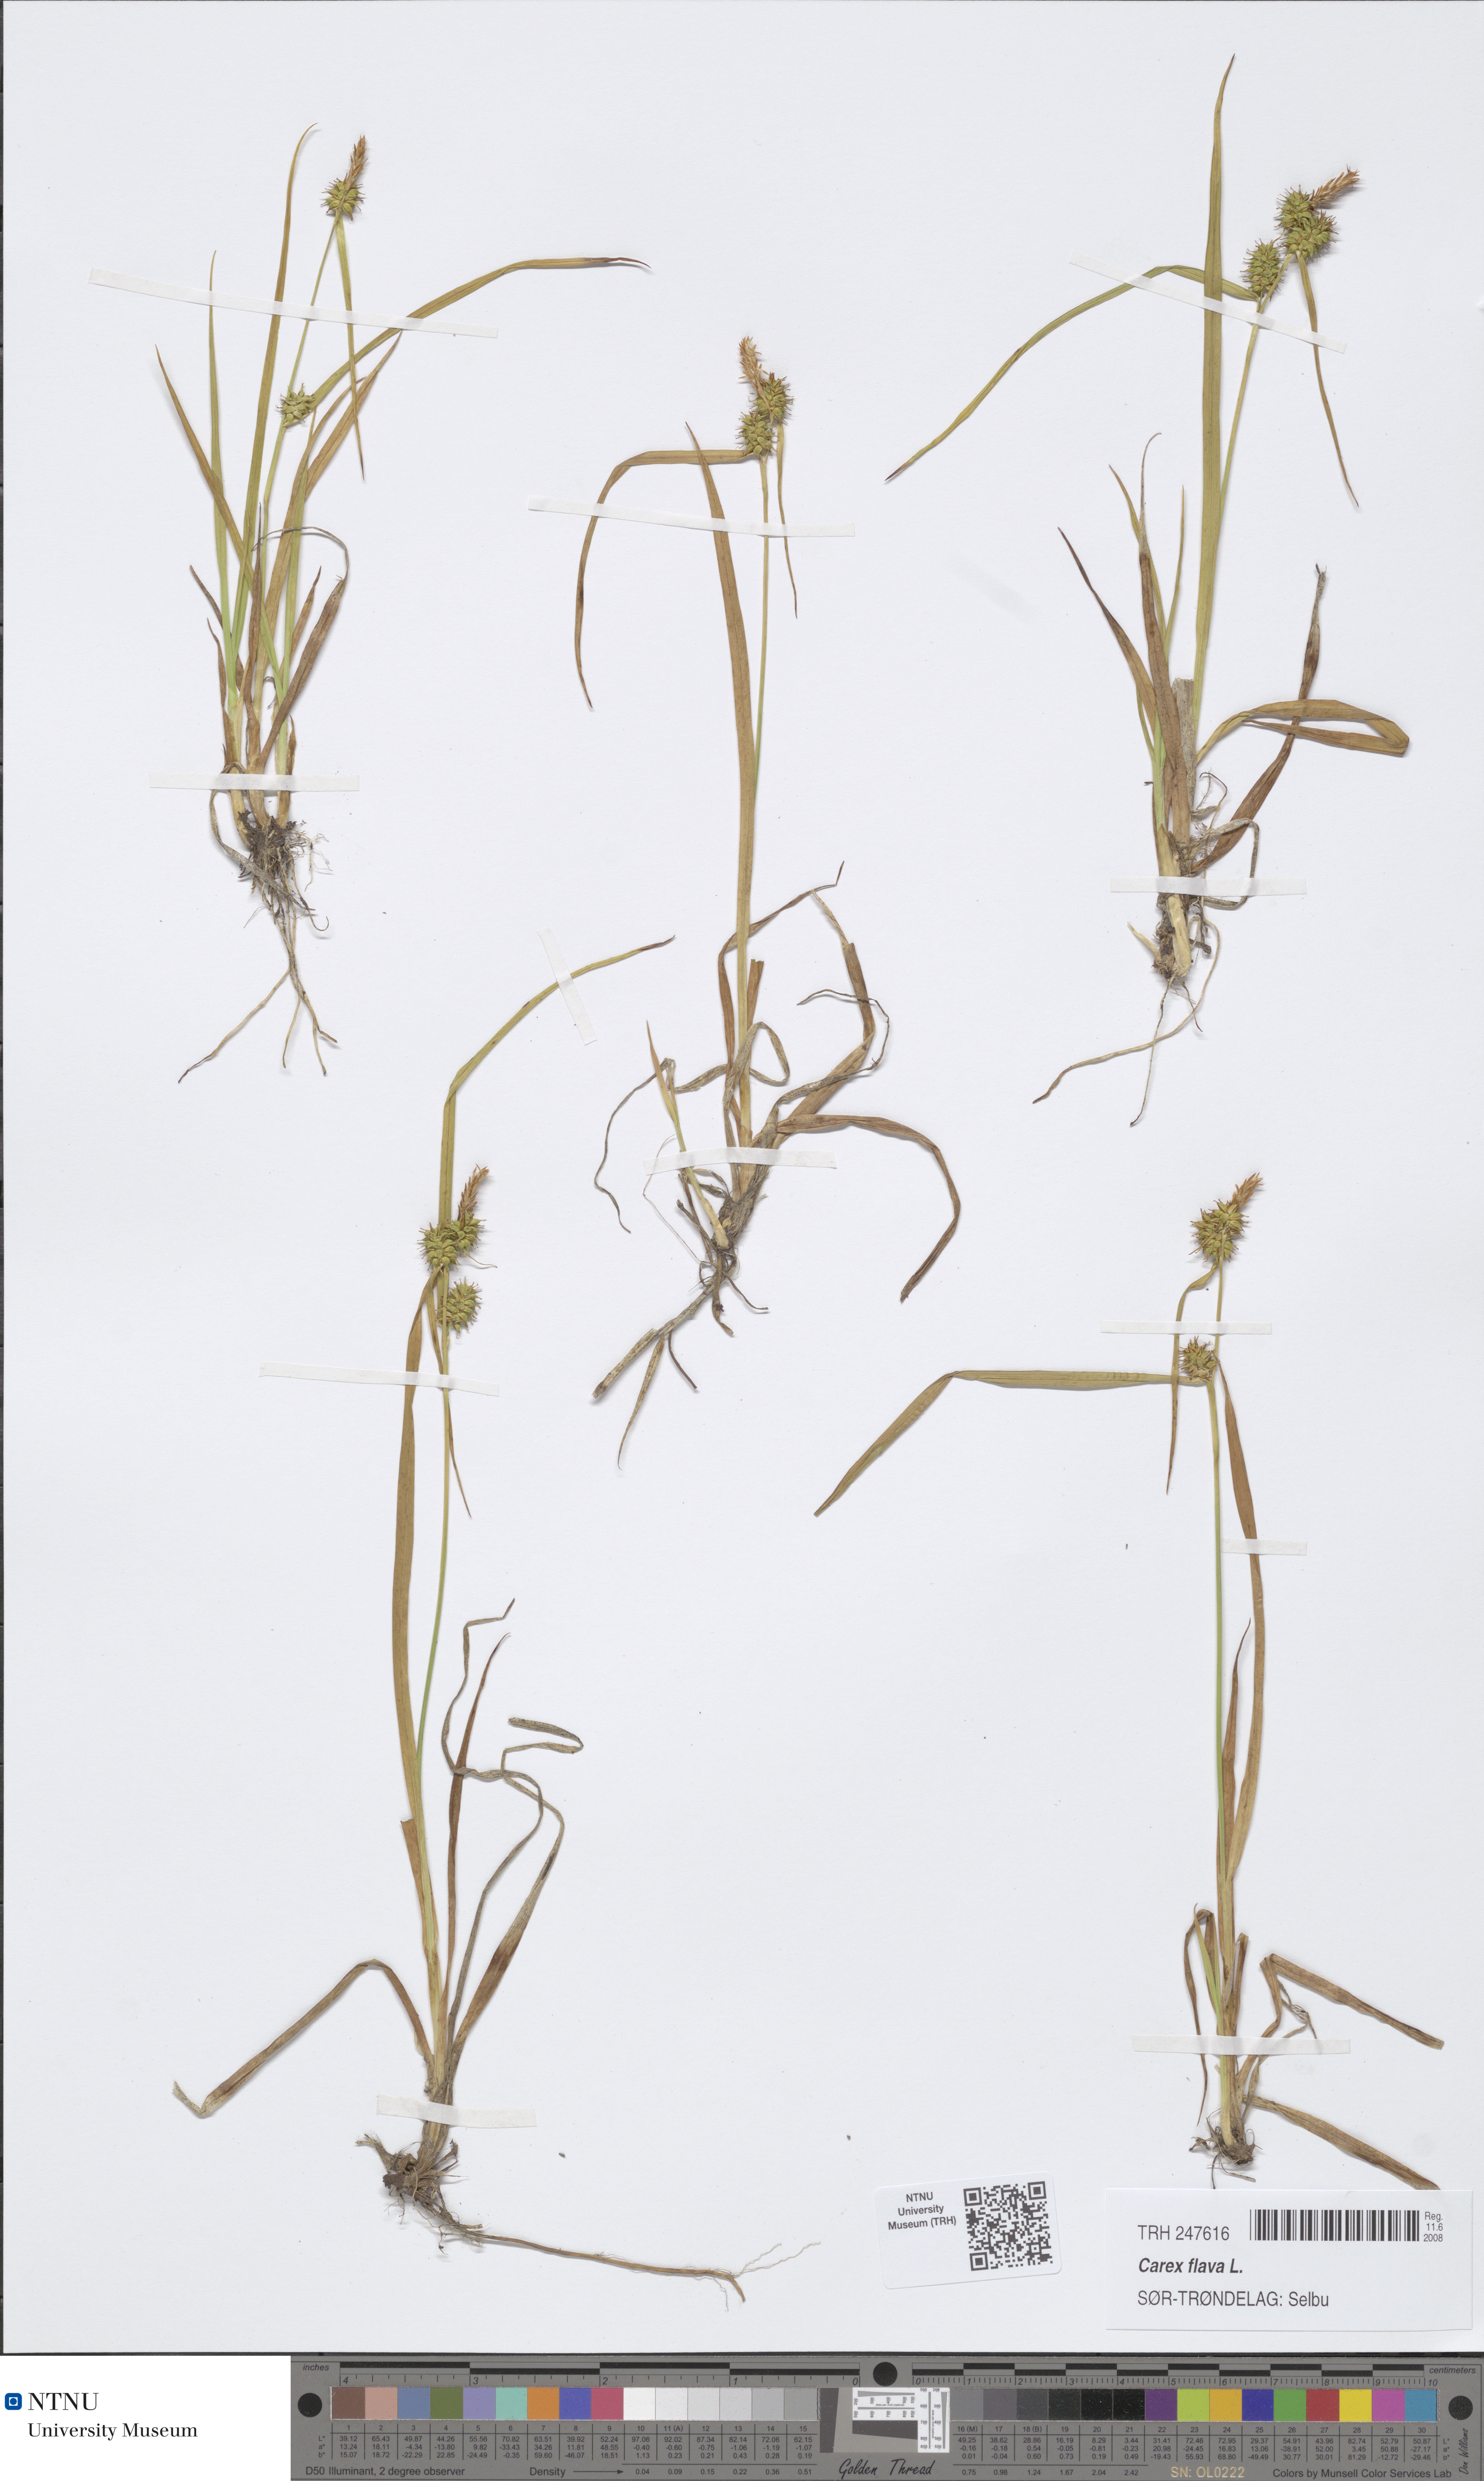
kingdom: Plantae
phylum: Tracheophyta
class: Liliopsida
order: Poales
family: Cyperaceae
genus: Carex
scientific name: Carex flava
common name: Large yellow-sedge
